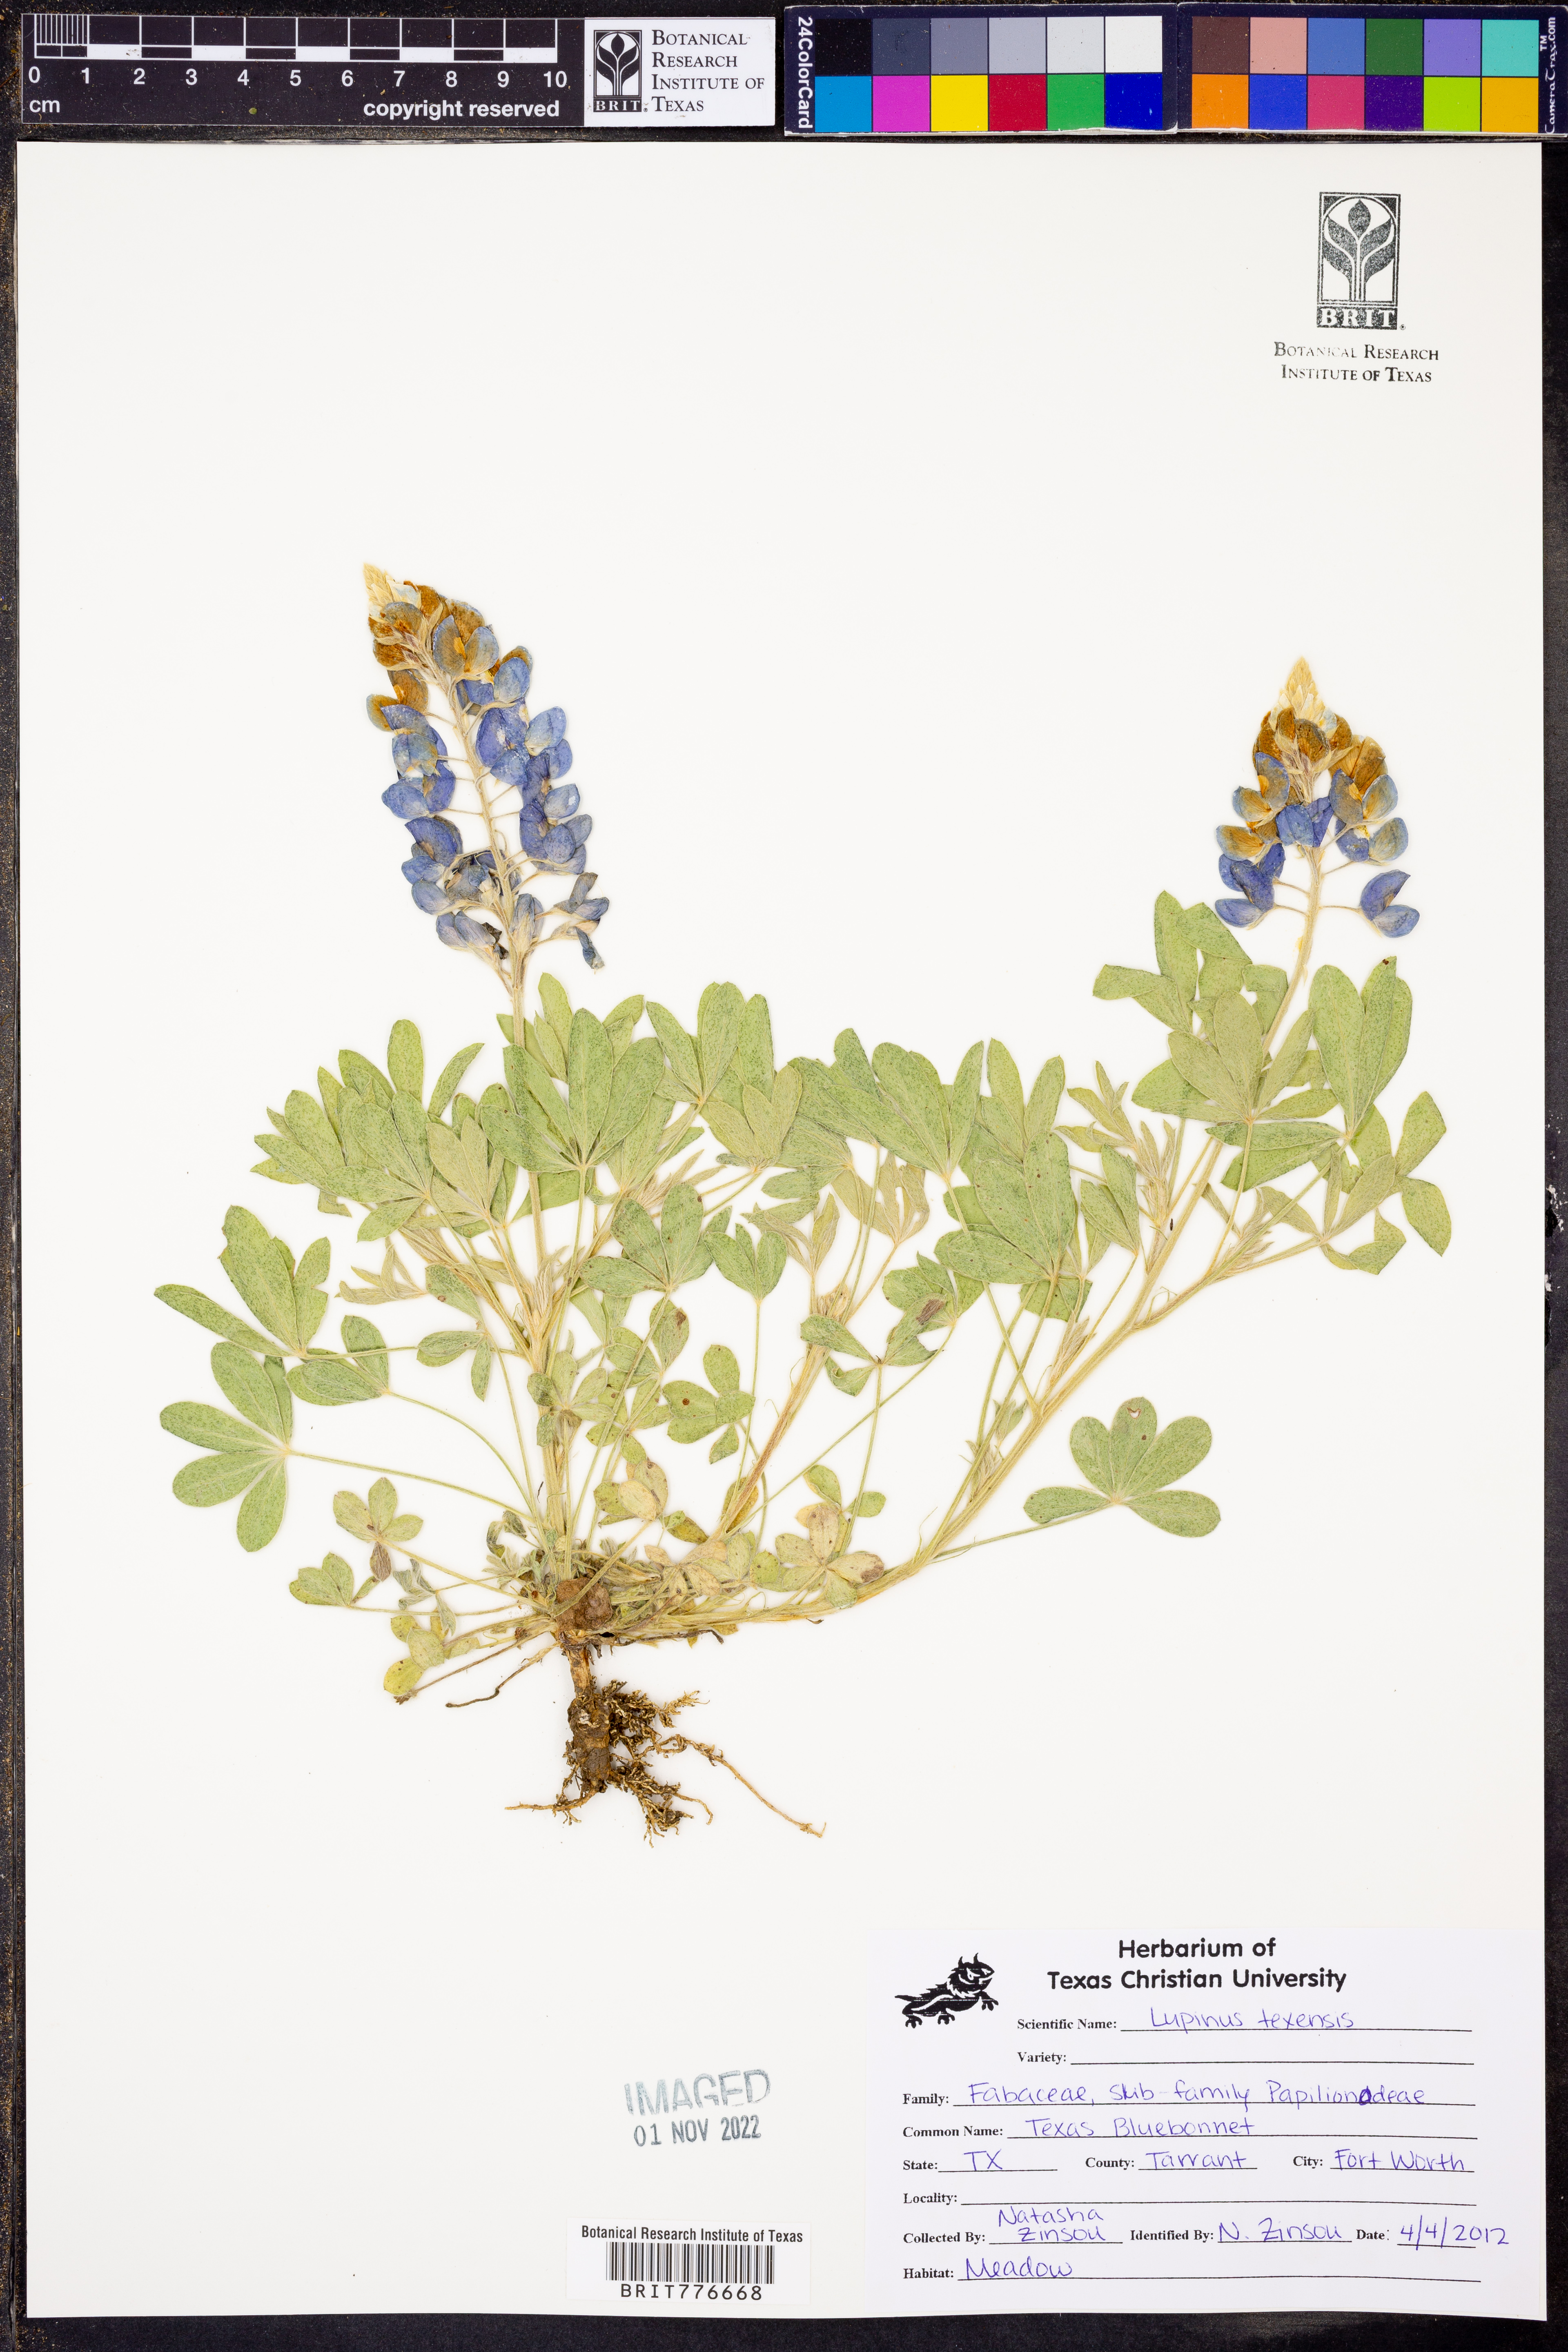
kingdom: Plantae
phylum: Tracheophyta
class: Magnoliopsida
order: Fabales
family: Fabaceae
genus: Lupinus
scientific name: Lupinus texensis
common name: Texas bluebonnet
